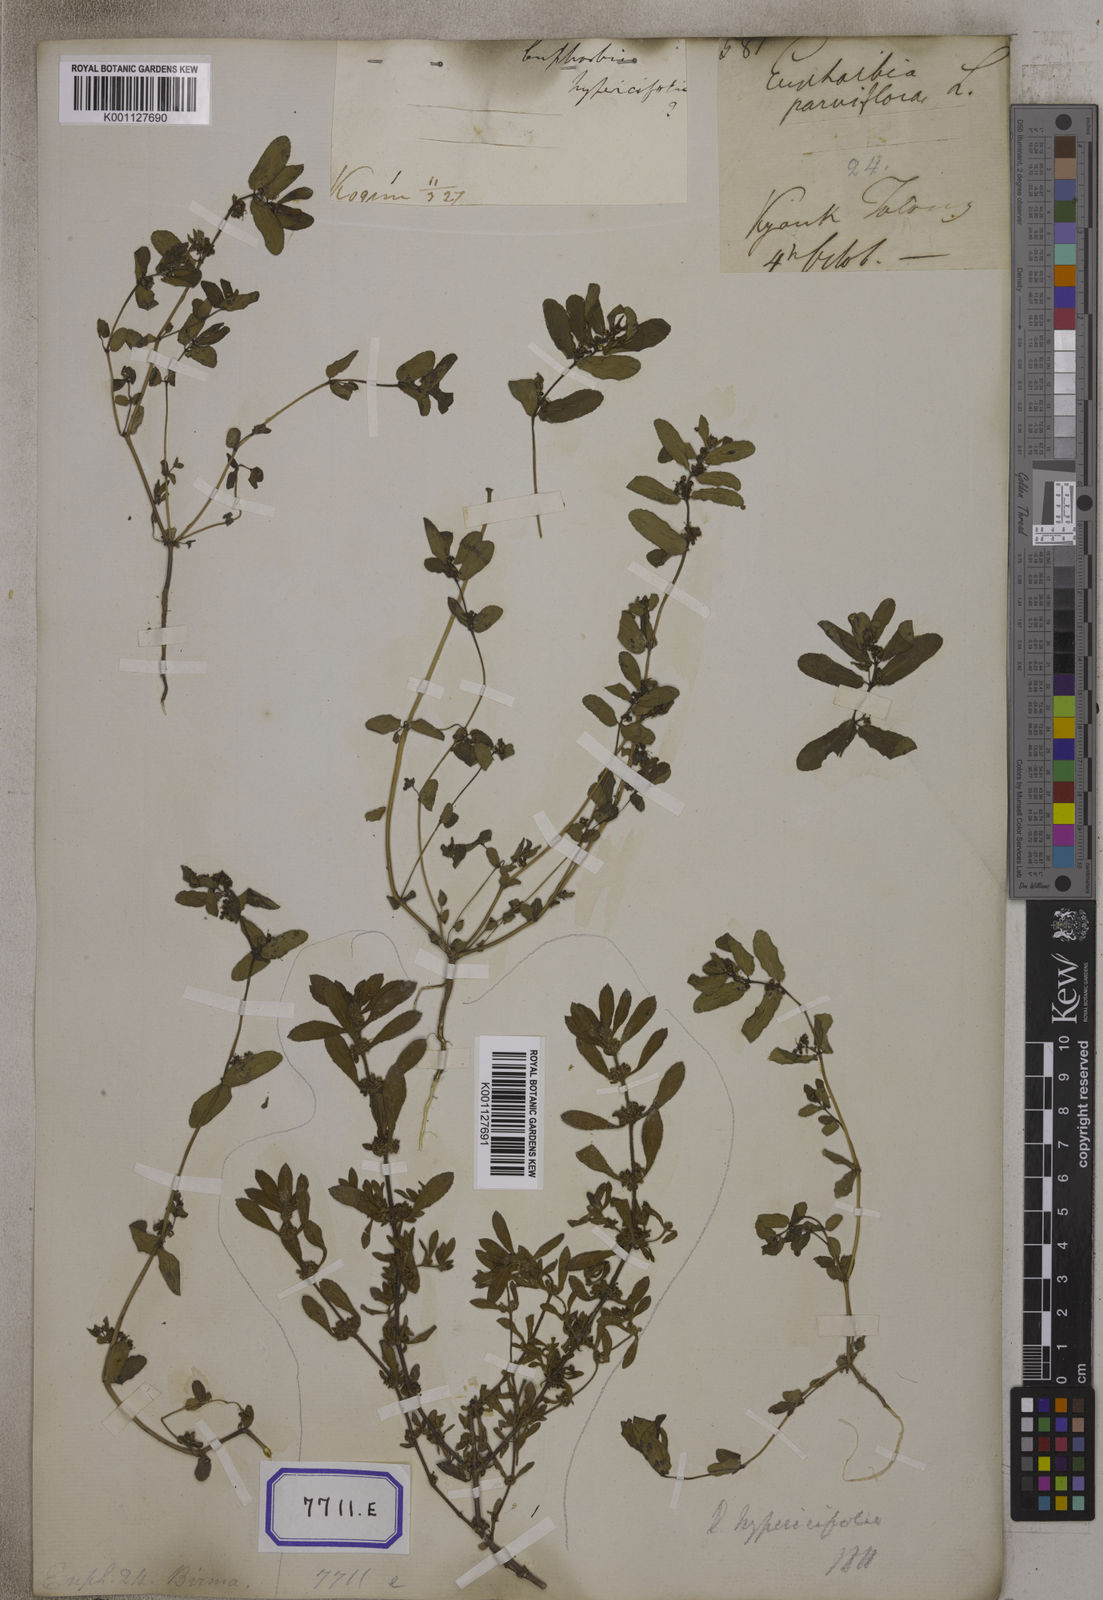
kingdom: Plantae
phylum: Tracheophyta
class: Magnoliopsida
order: Malpighiales
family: Euphorbiaceae
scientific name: Euphorbiaceae
